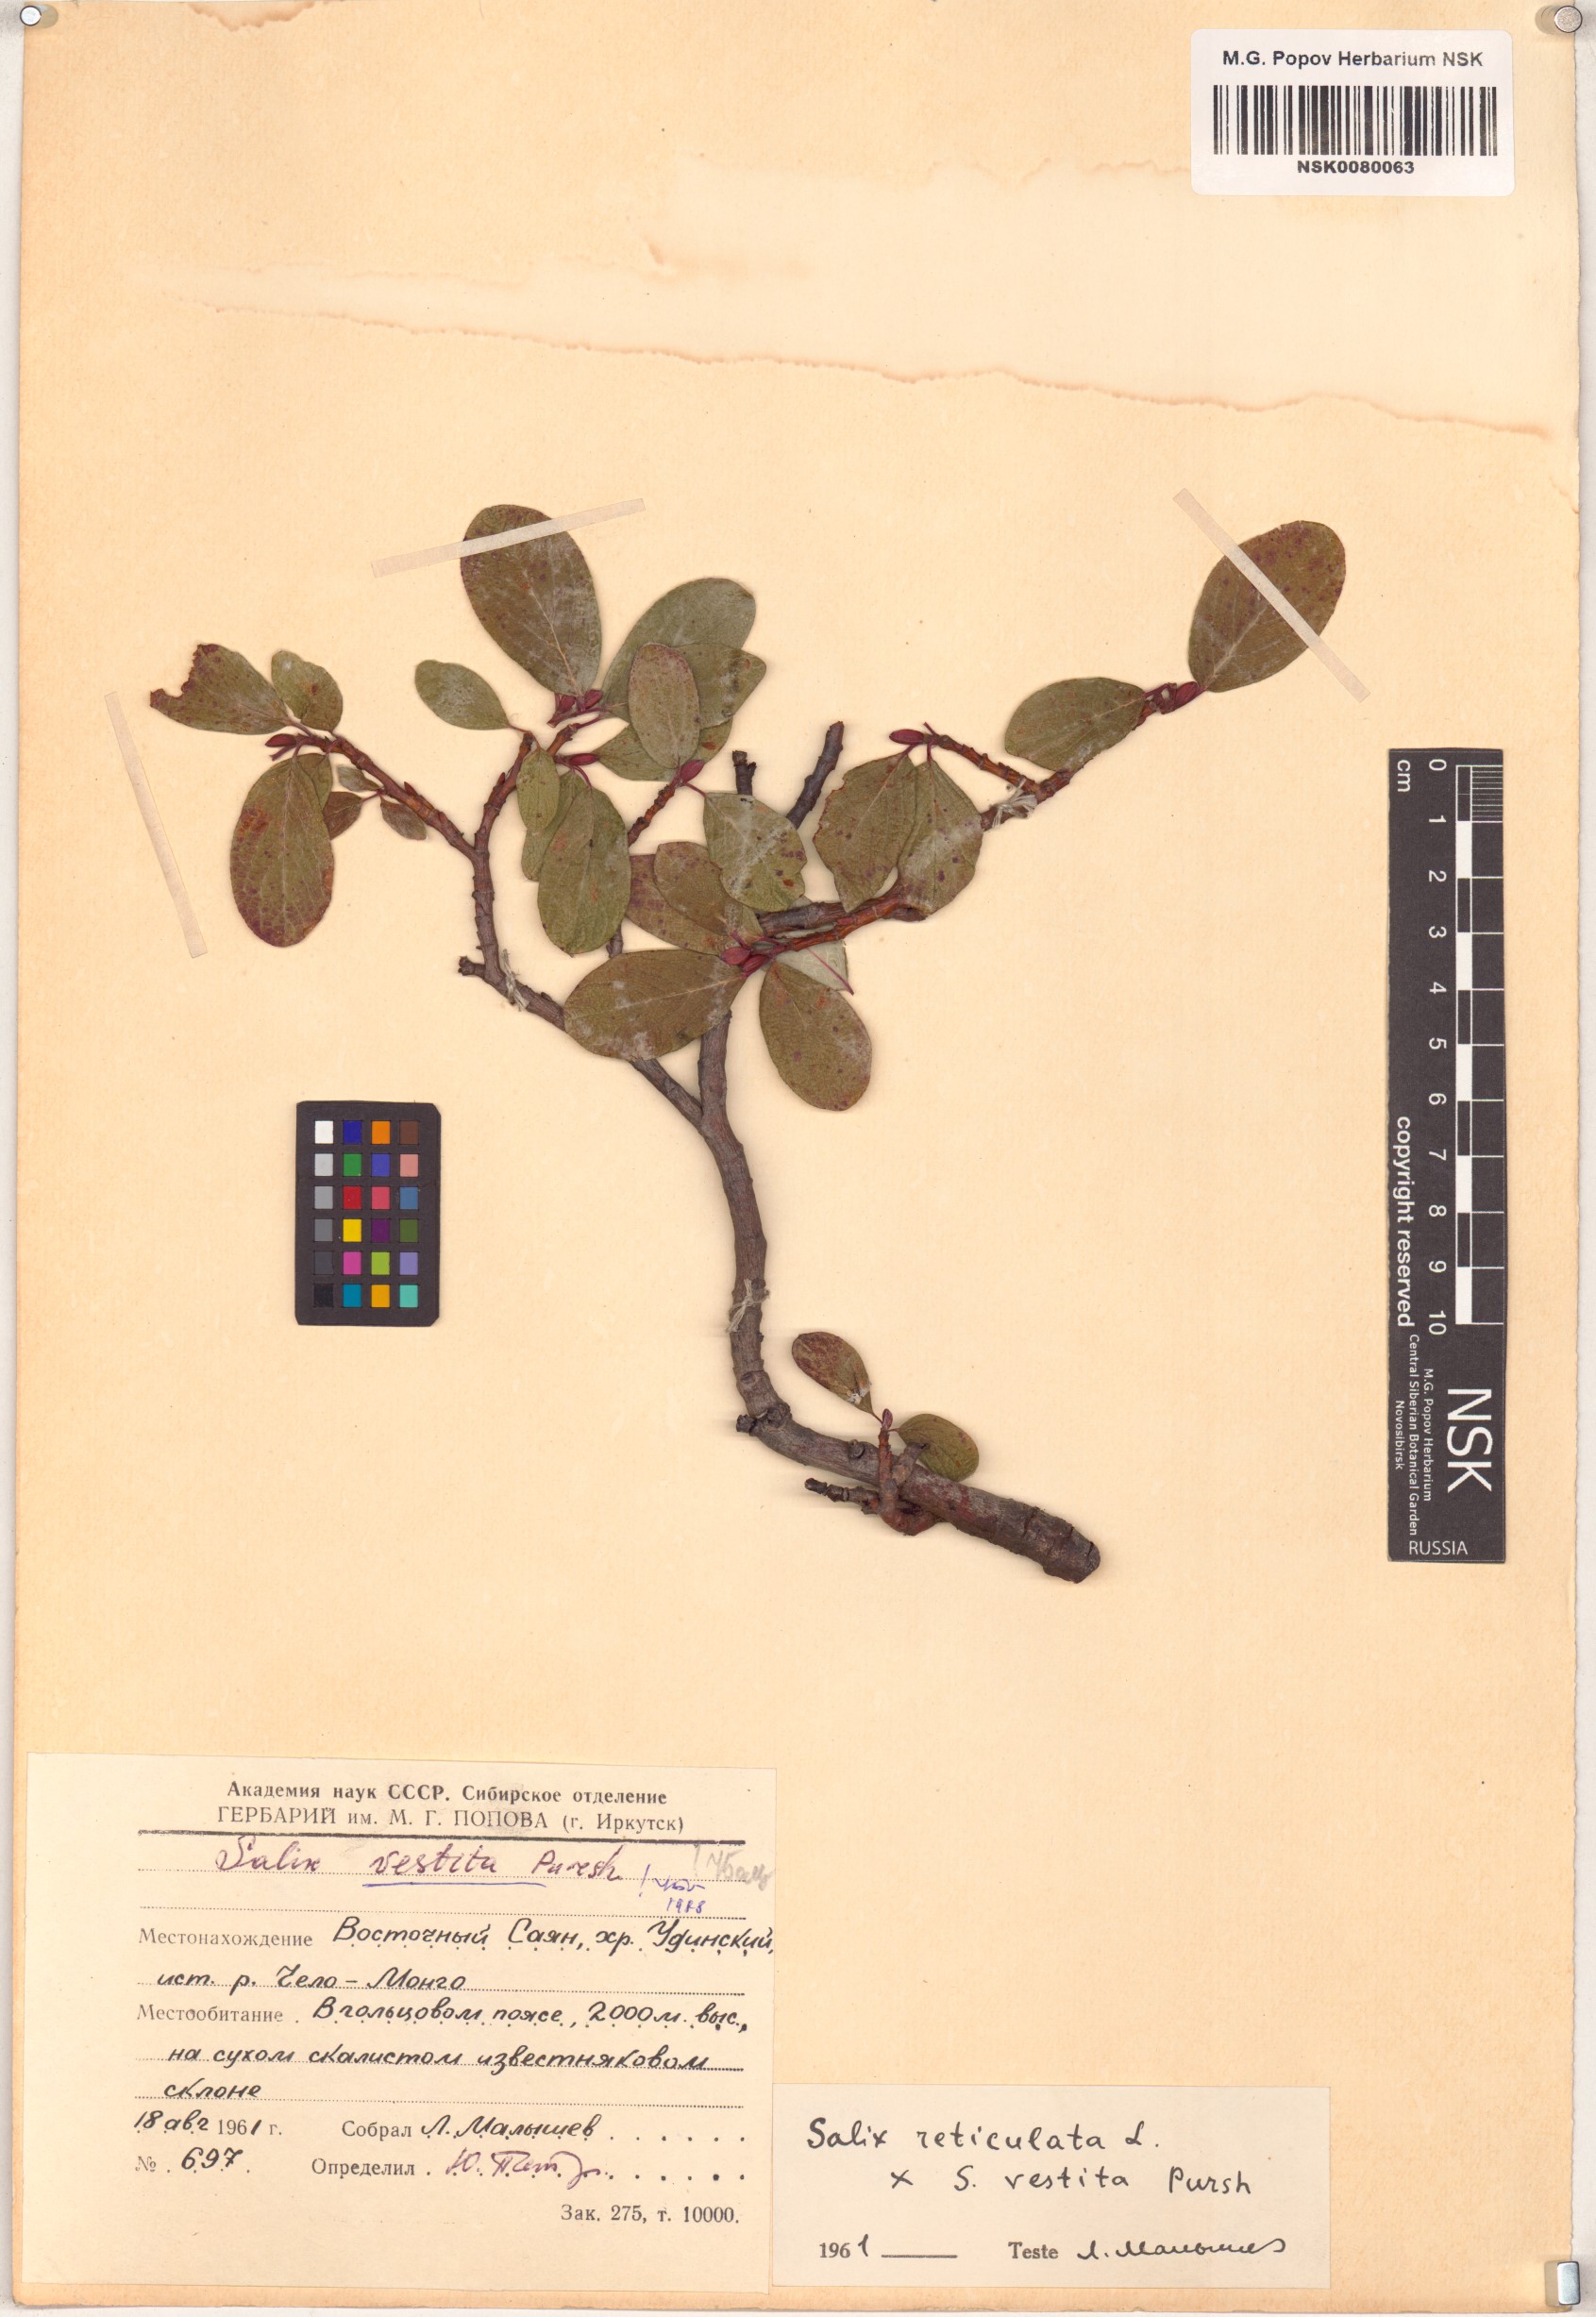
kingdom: Plantae
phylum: Tracheophyta
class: Magnoliopsida
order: Malpighiales
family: Salicaceae
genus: Salix
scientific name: Salix vestita
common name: Hairy willow
